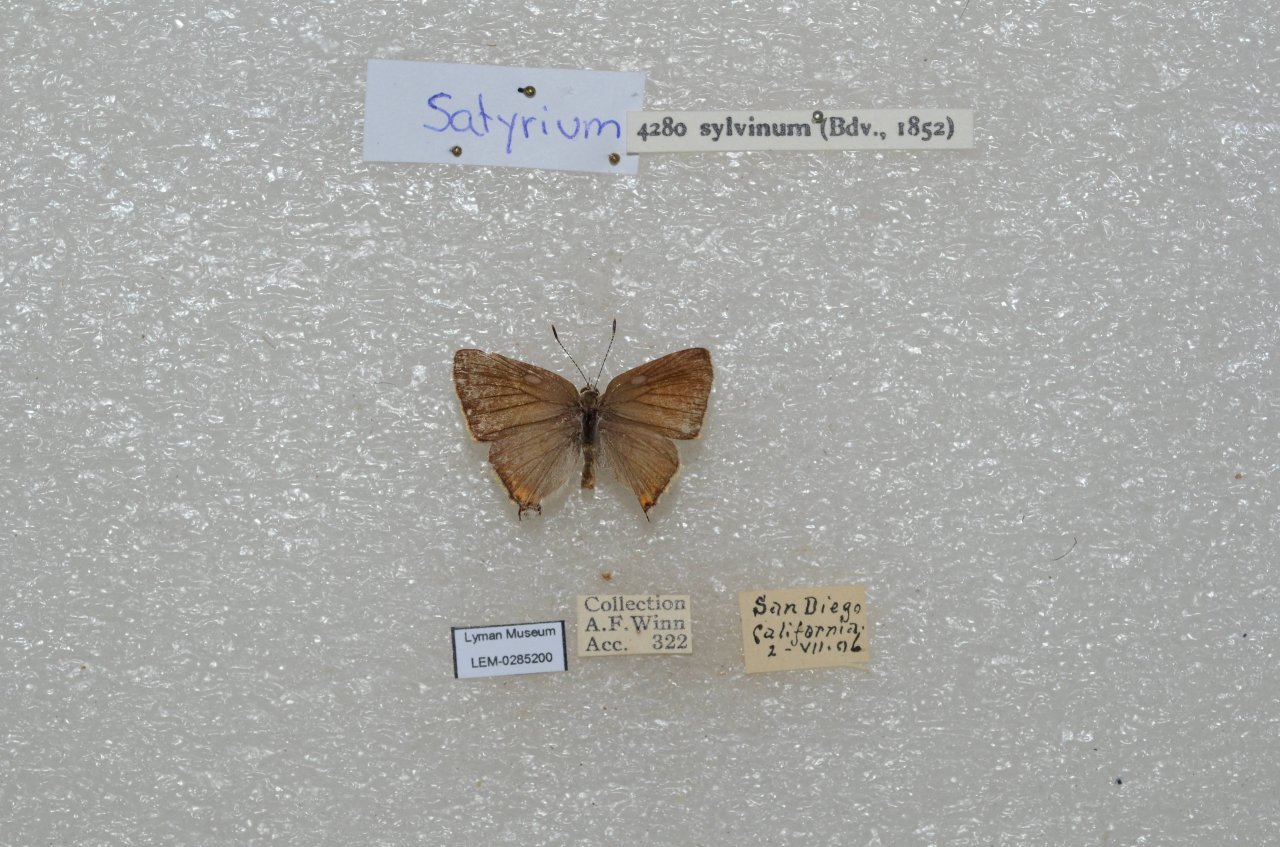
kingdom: Animalia
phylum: Arthropoda
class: Insecta
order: Lepidoptera
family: Lycaenidae
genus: Strymon
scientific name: Strymon acadica
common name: California Hairstreak
